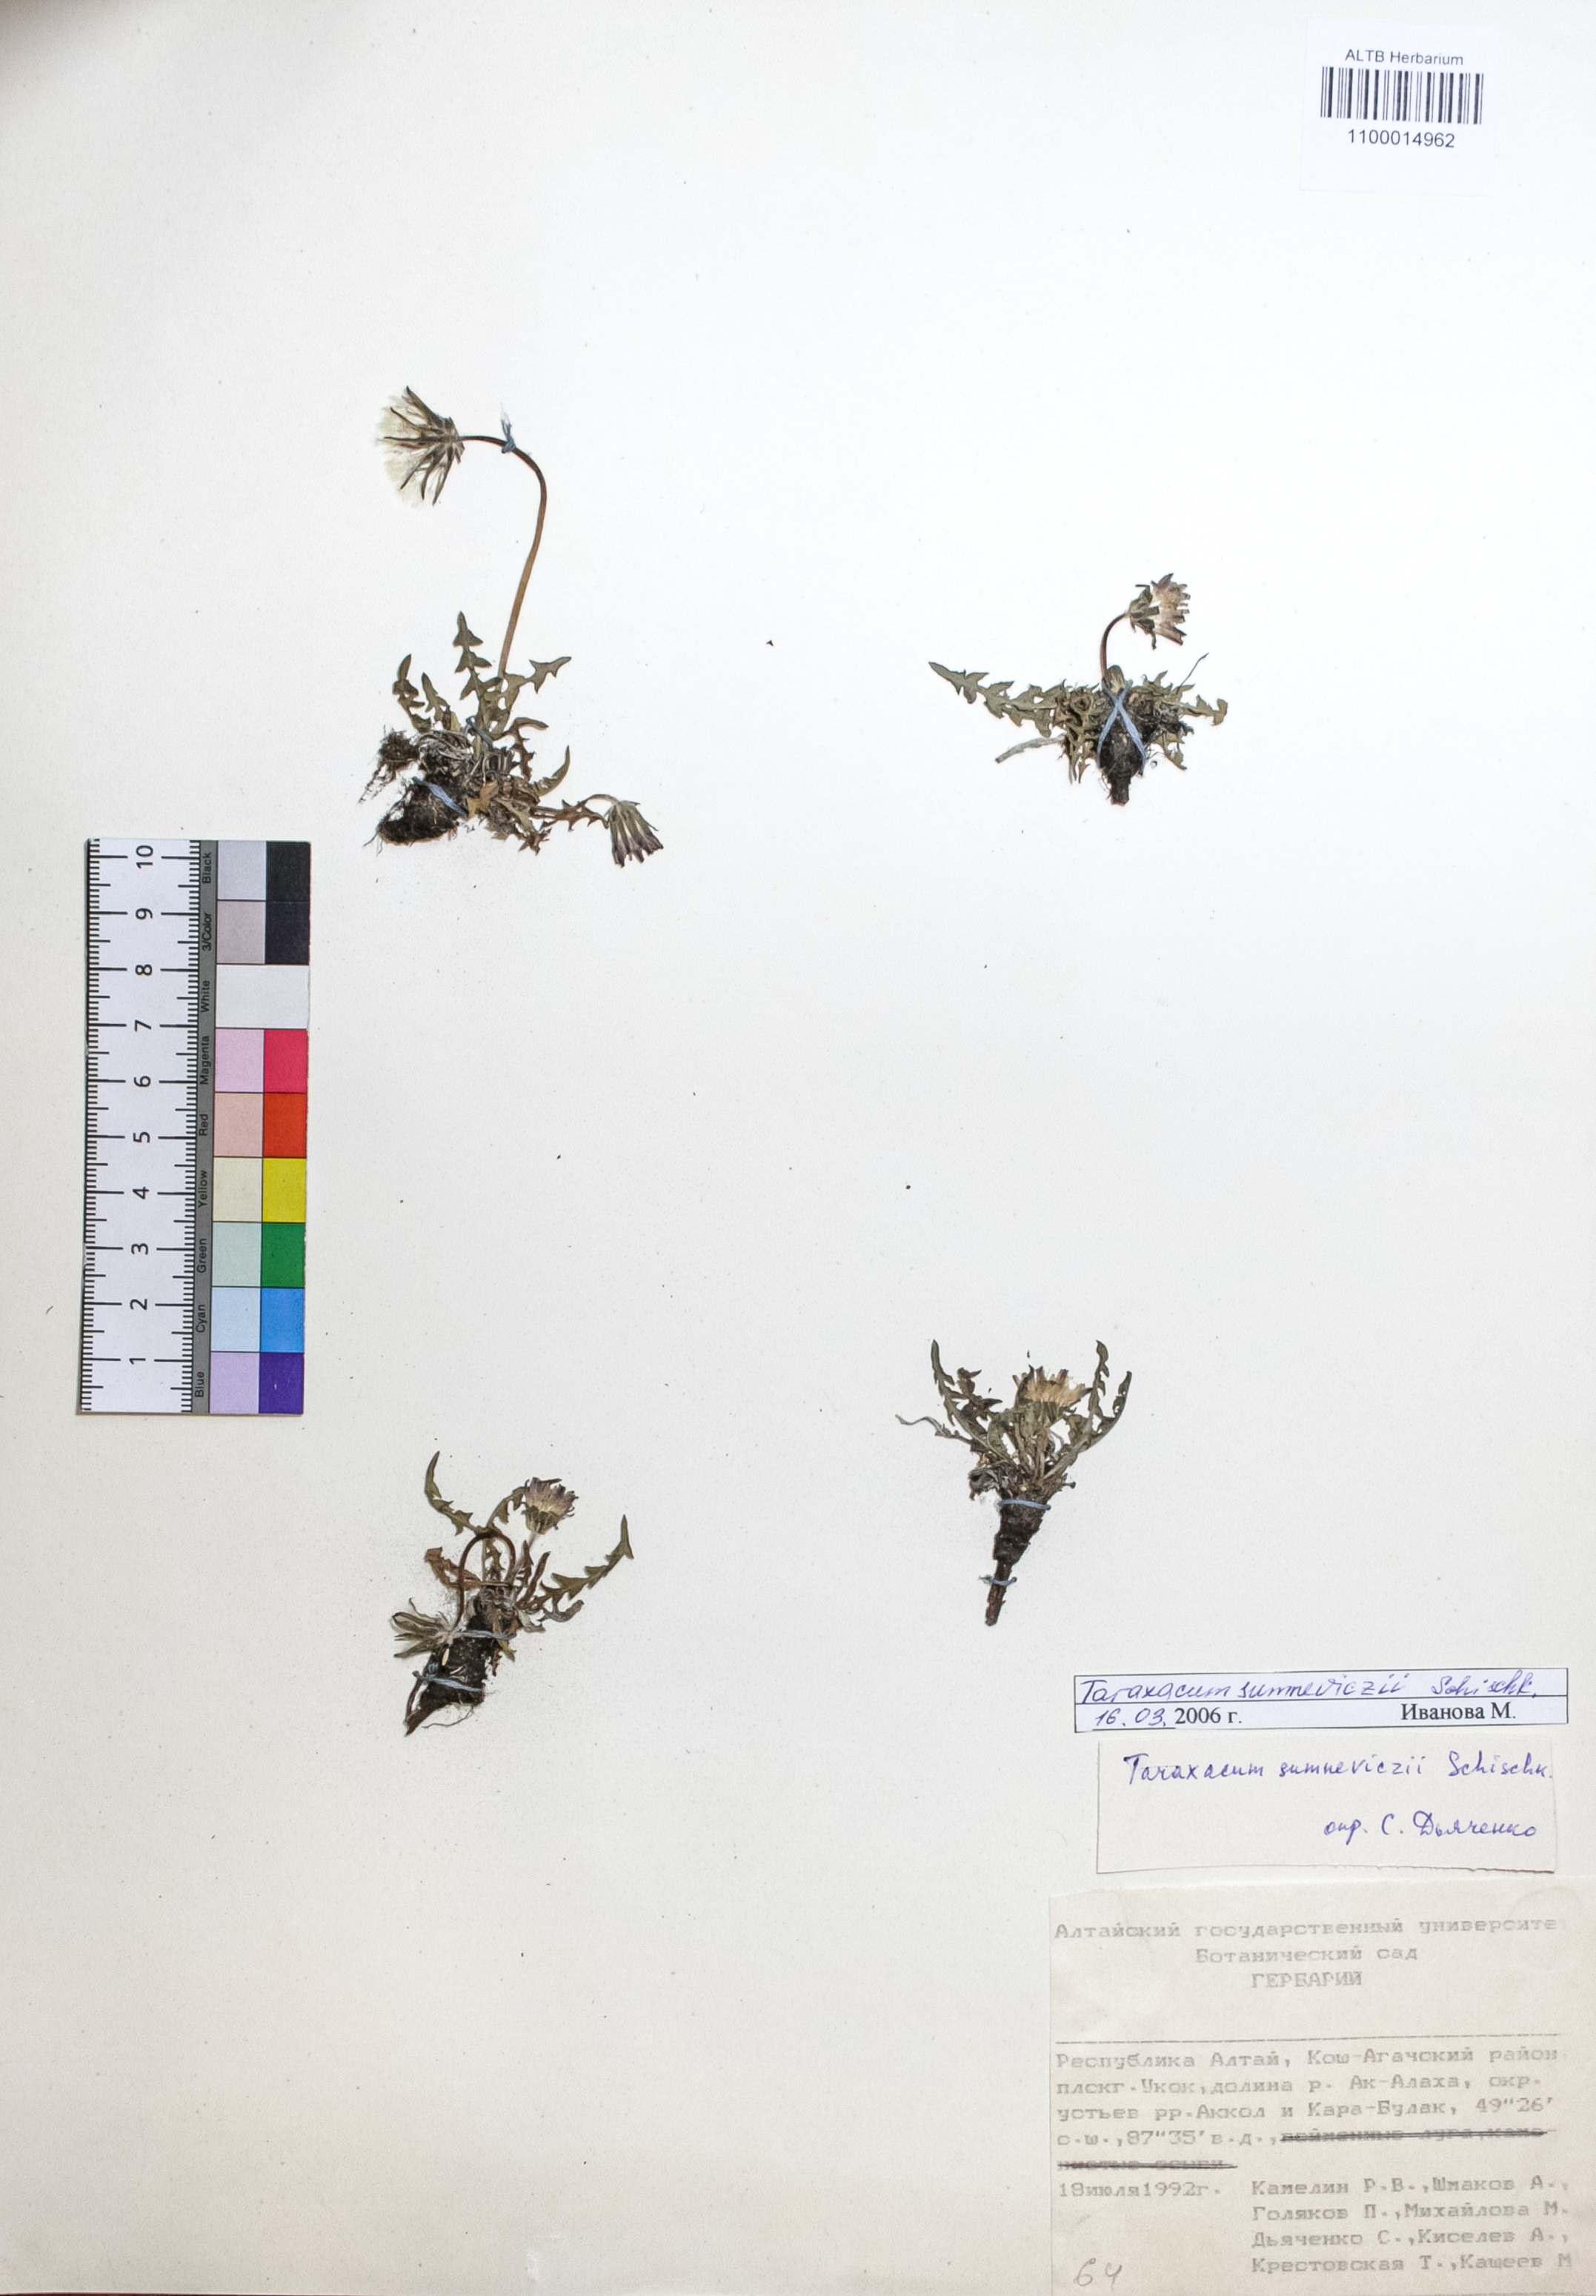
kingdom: Plantae
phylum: Tracheophyta
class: Magnoliopsida
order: Asterales
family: Asteraceae
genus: Taraxacum
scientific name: Taraxacum sumneviczii
